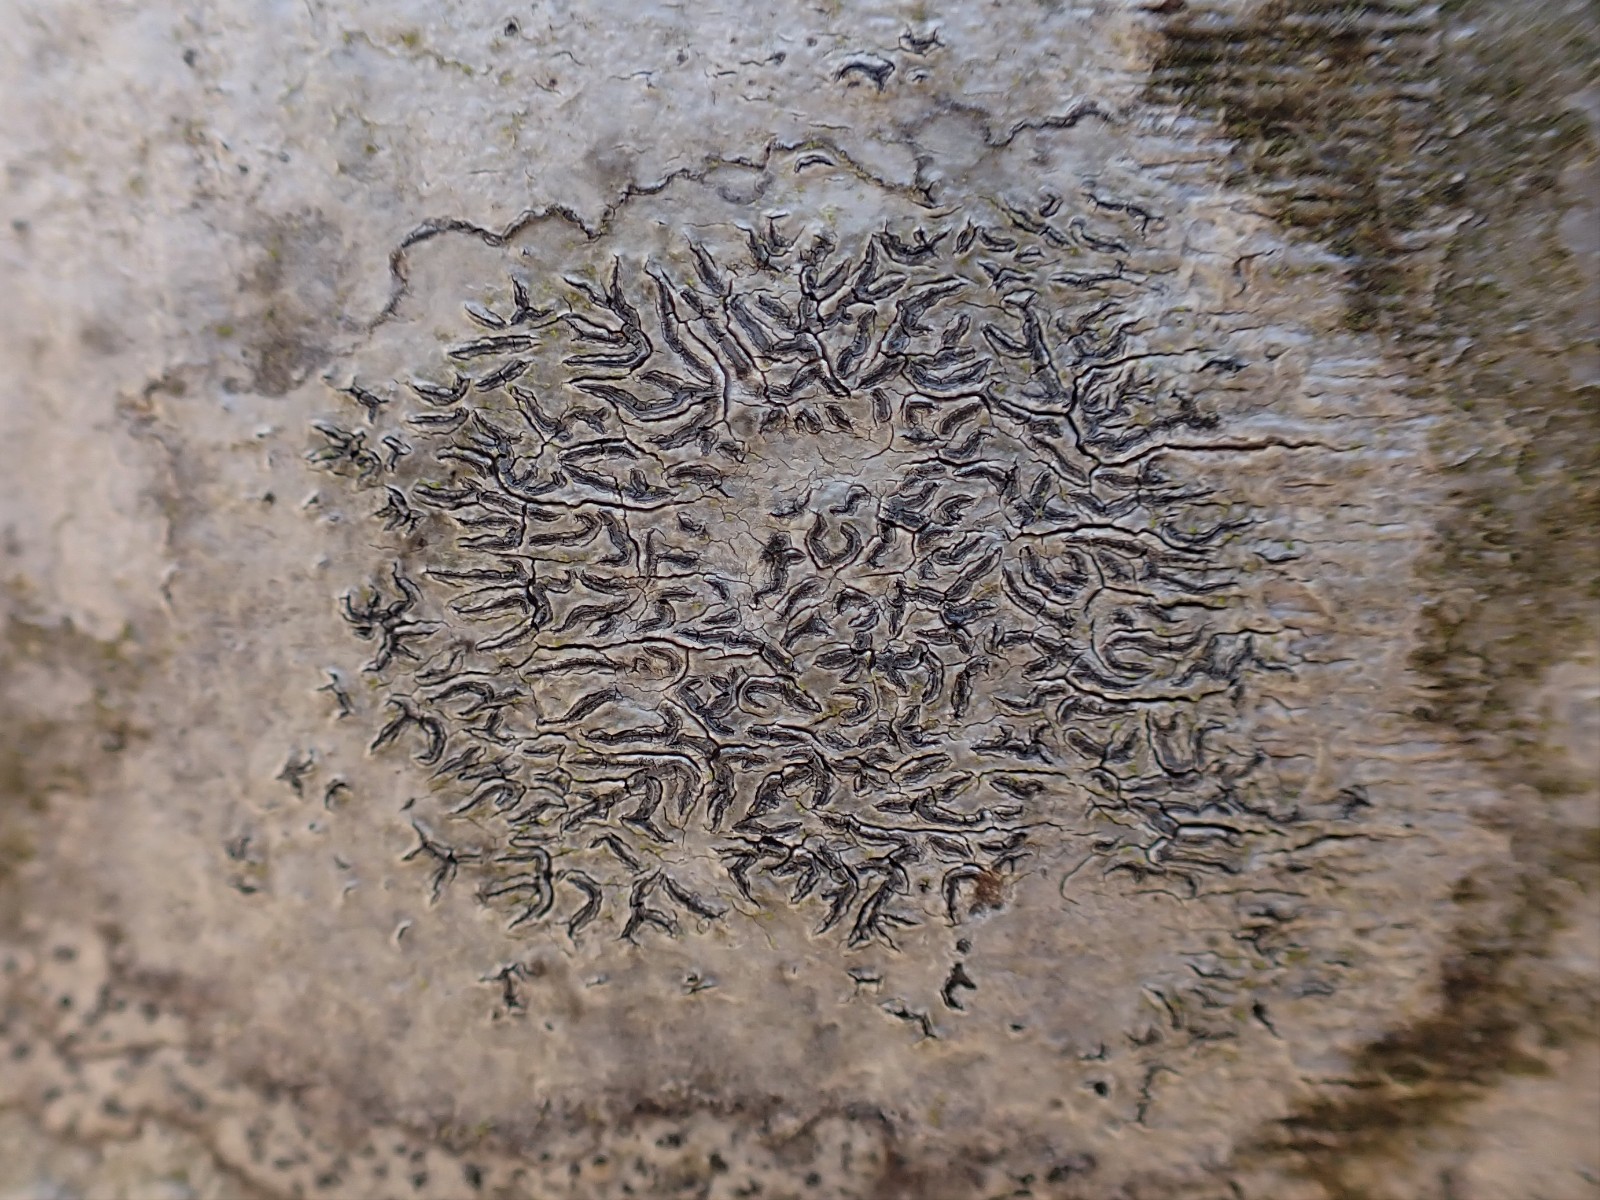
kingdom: Fungi
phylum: Ascomycota
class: Lecanoromycetes
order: Ostropales
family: Graphidaceae
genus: Graphis
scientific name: Graphis scripta
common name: almindelig skriftlav
